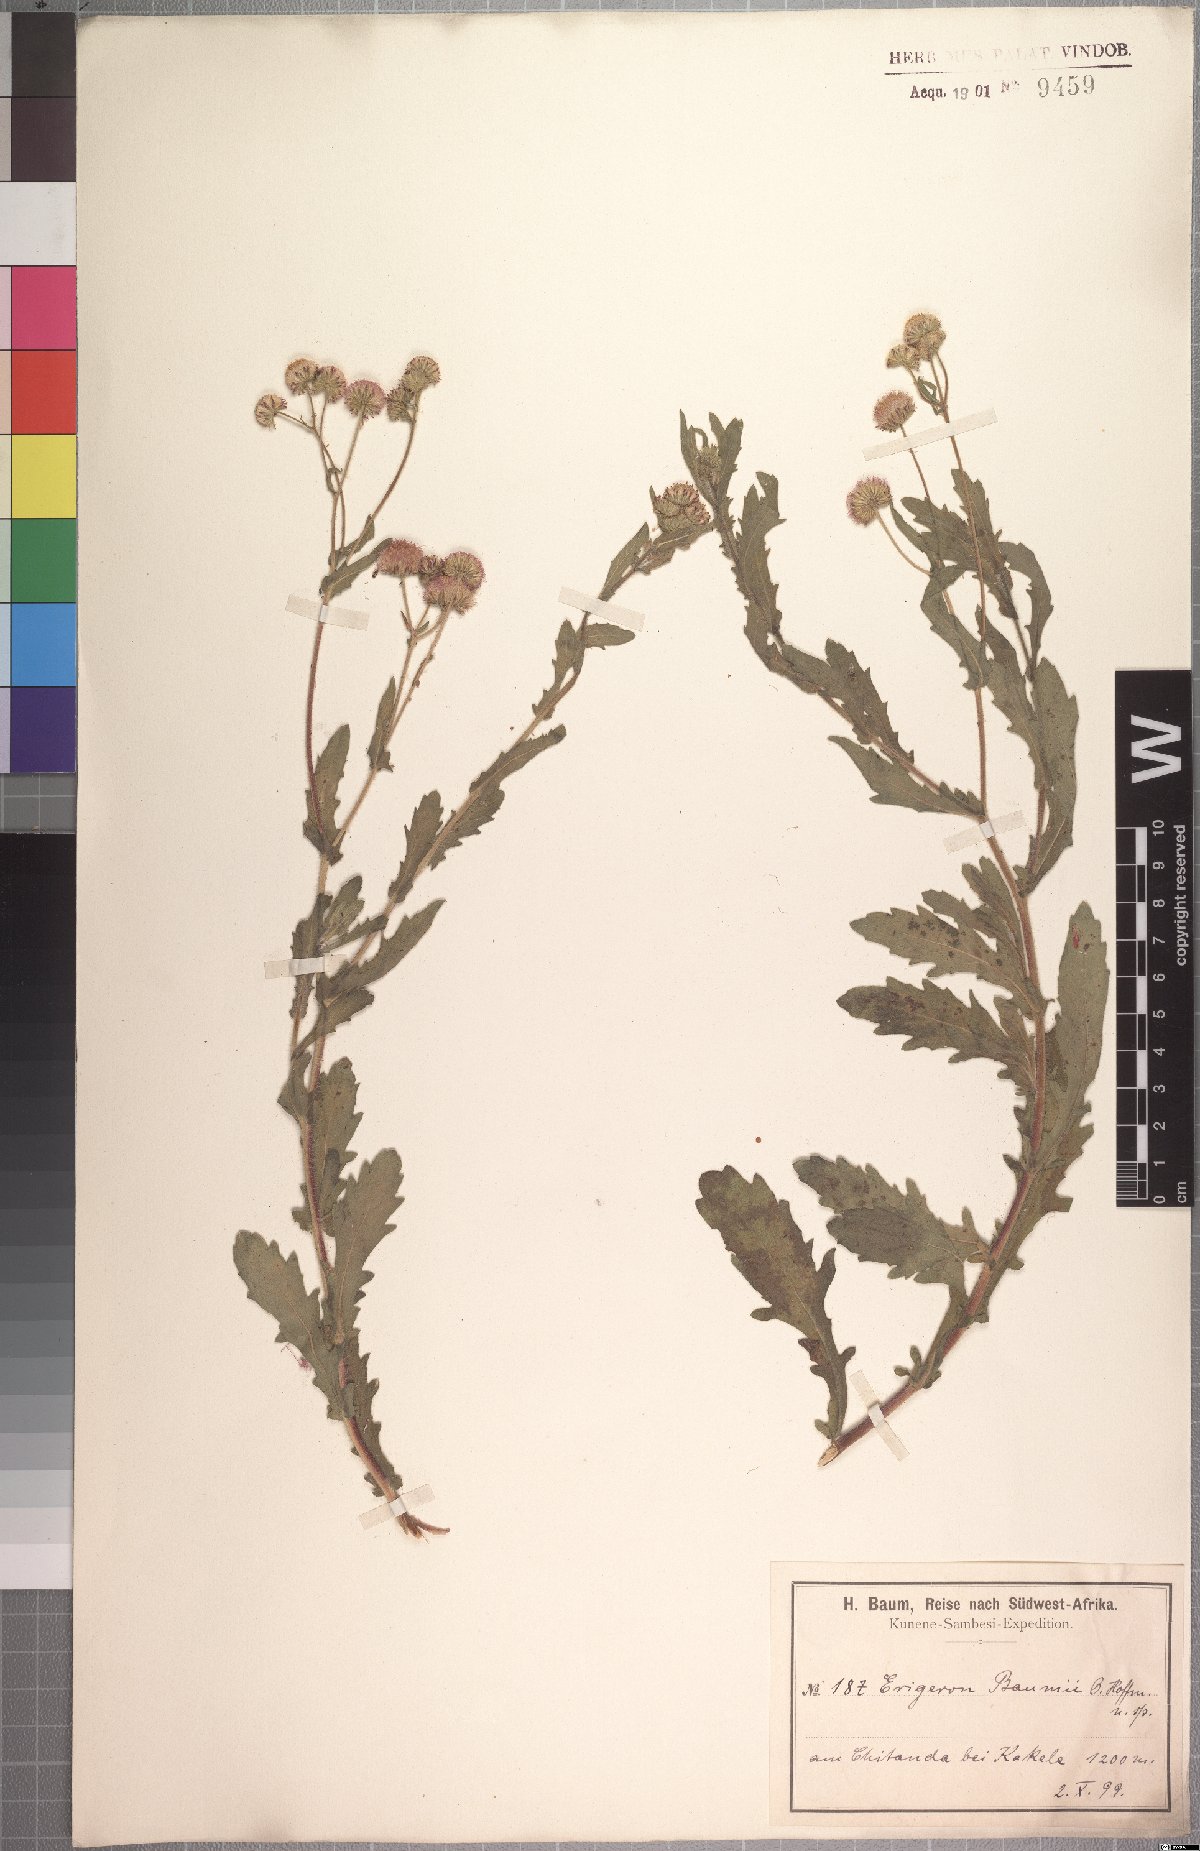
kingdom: Plantae
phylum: Tracheophyta
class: Magnoliopsida
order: Asterales
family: Asteraceae
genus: Conyza
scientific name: Conyza baumii
